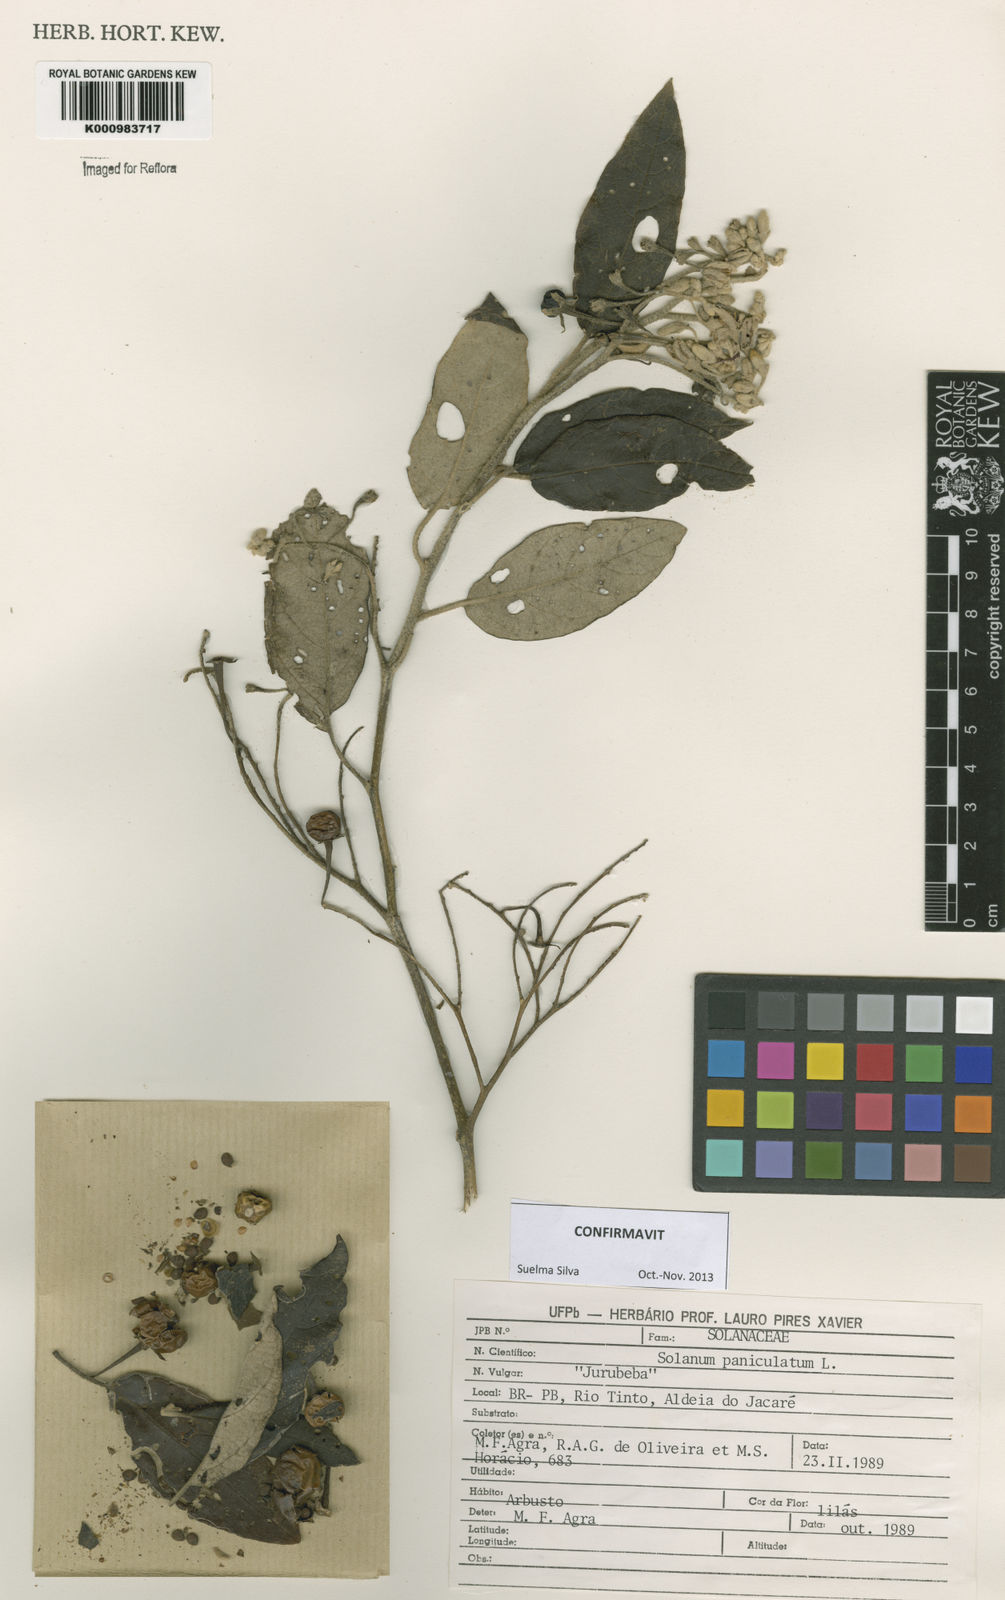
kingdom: Plantae
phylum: Tracheophyta
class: Magnoliopsida
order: Solanales
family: Solanaceae
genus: Solanum
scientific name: Solanum paniculatum
